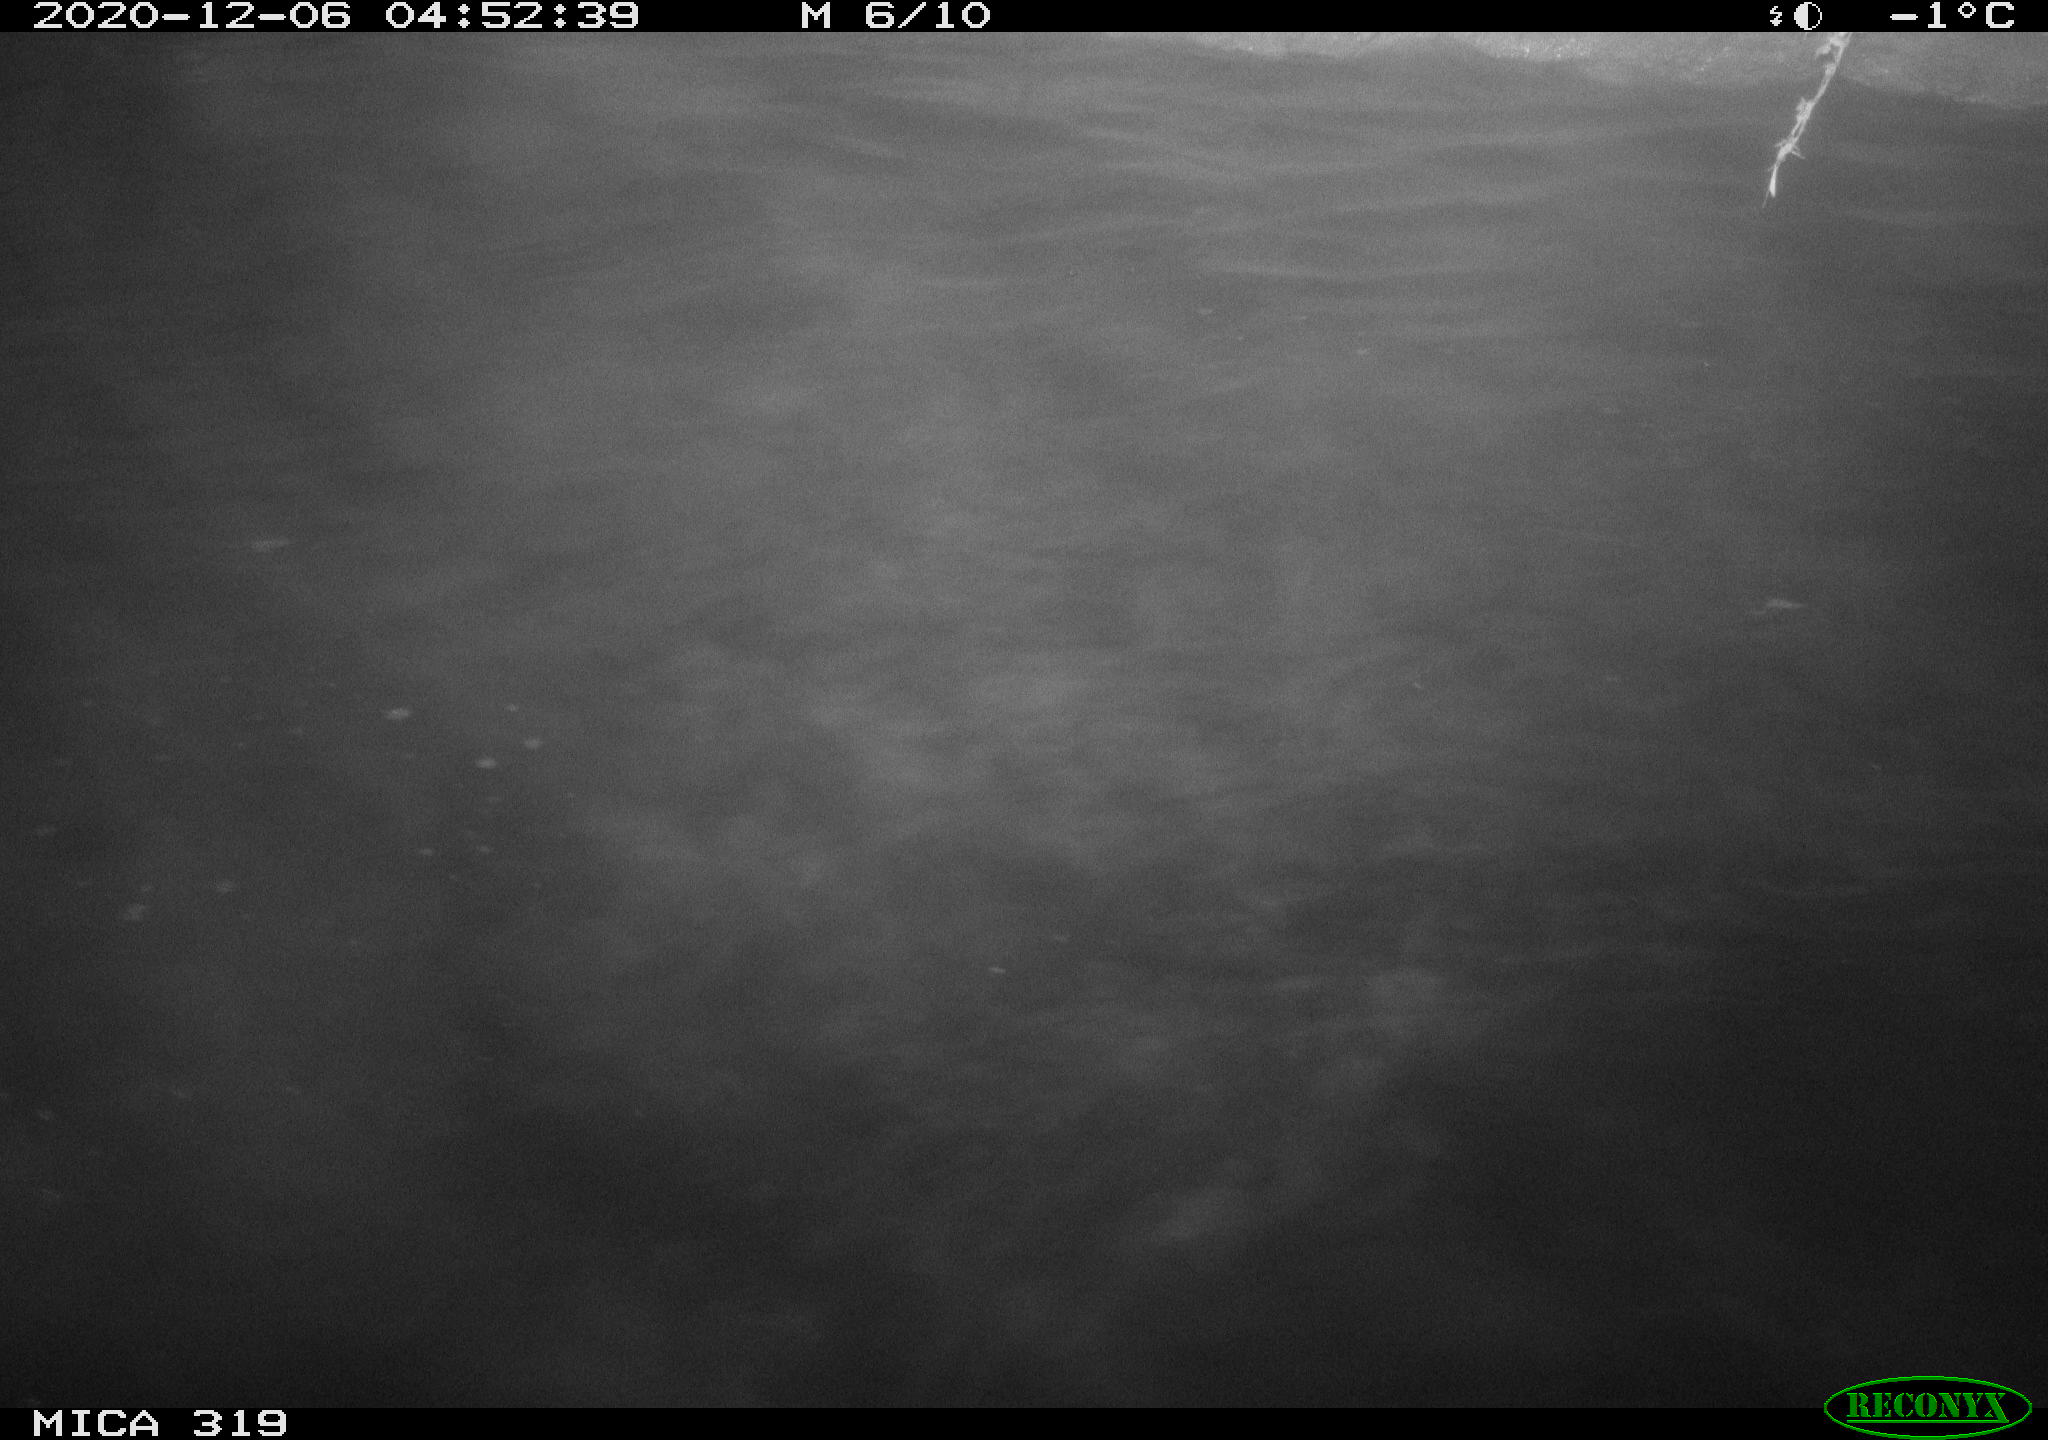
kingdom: Animalia
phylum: Chordata
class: Aves
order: Anseriformes
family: Anatidae
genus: Anas
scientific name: Anas platyrhynchos
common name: Mallard
